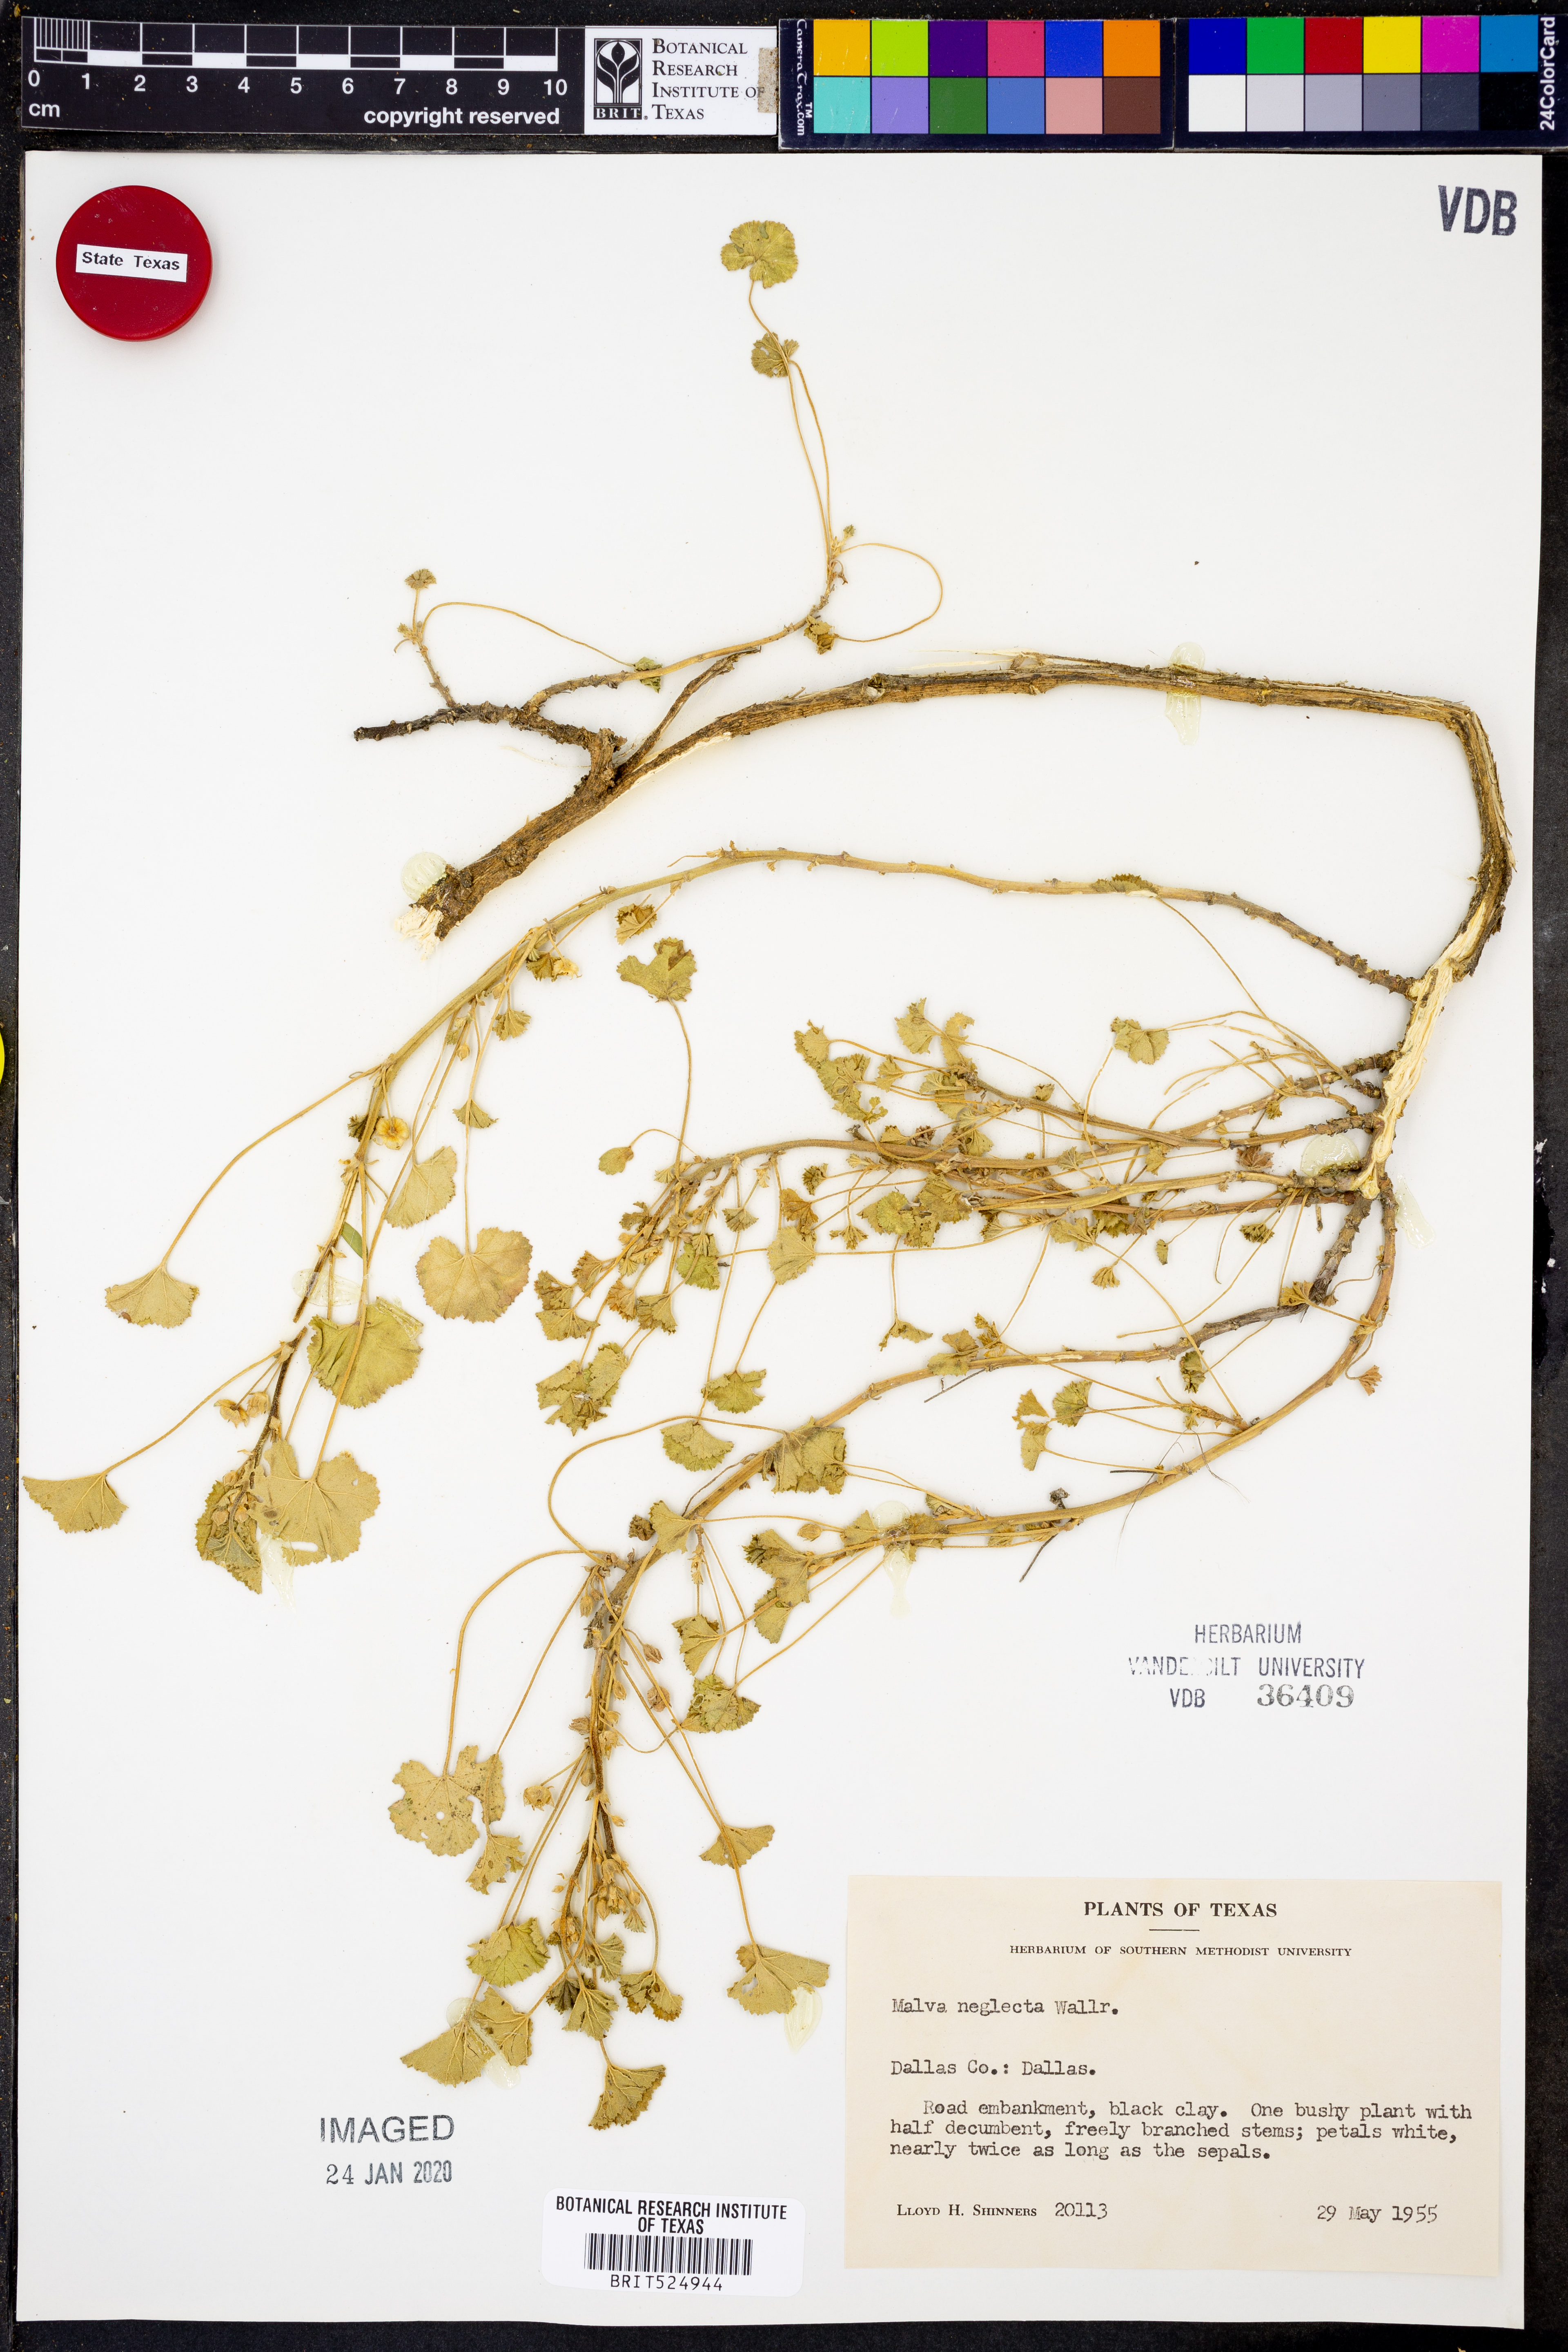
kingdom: Plantae
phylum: Tracheophyta
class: Magnoliopsida
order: Malvales
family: Malvaceae
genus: Malva
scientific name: Malva neglecta
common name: Common mallow
